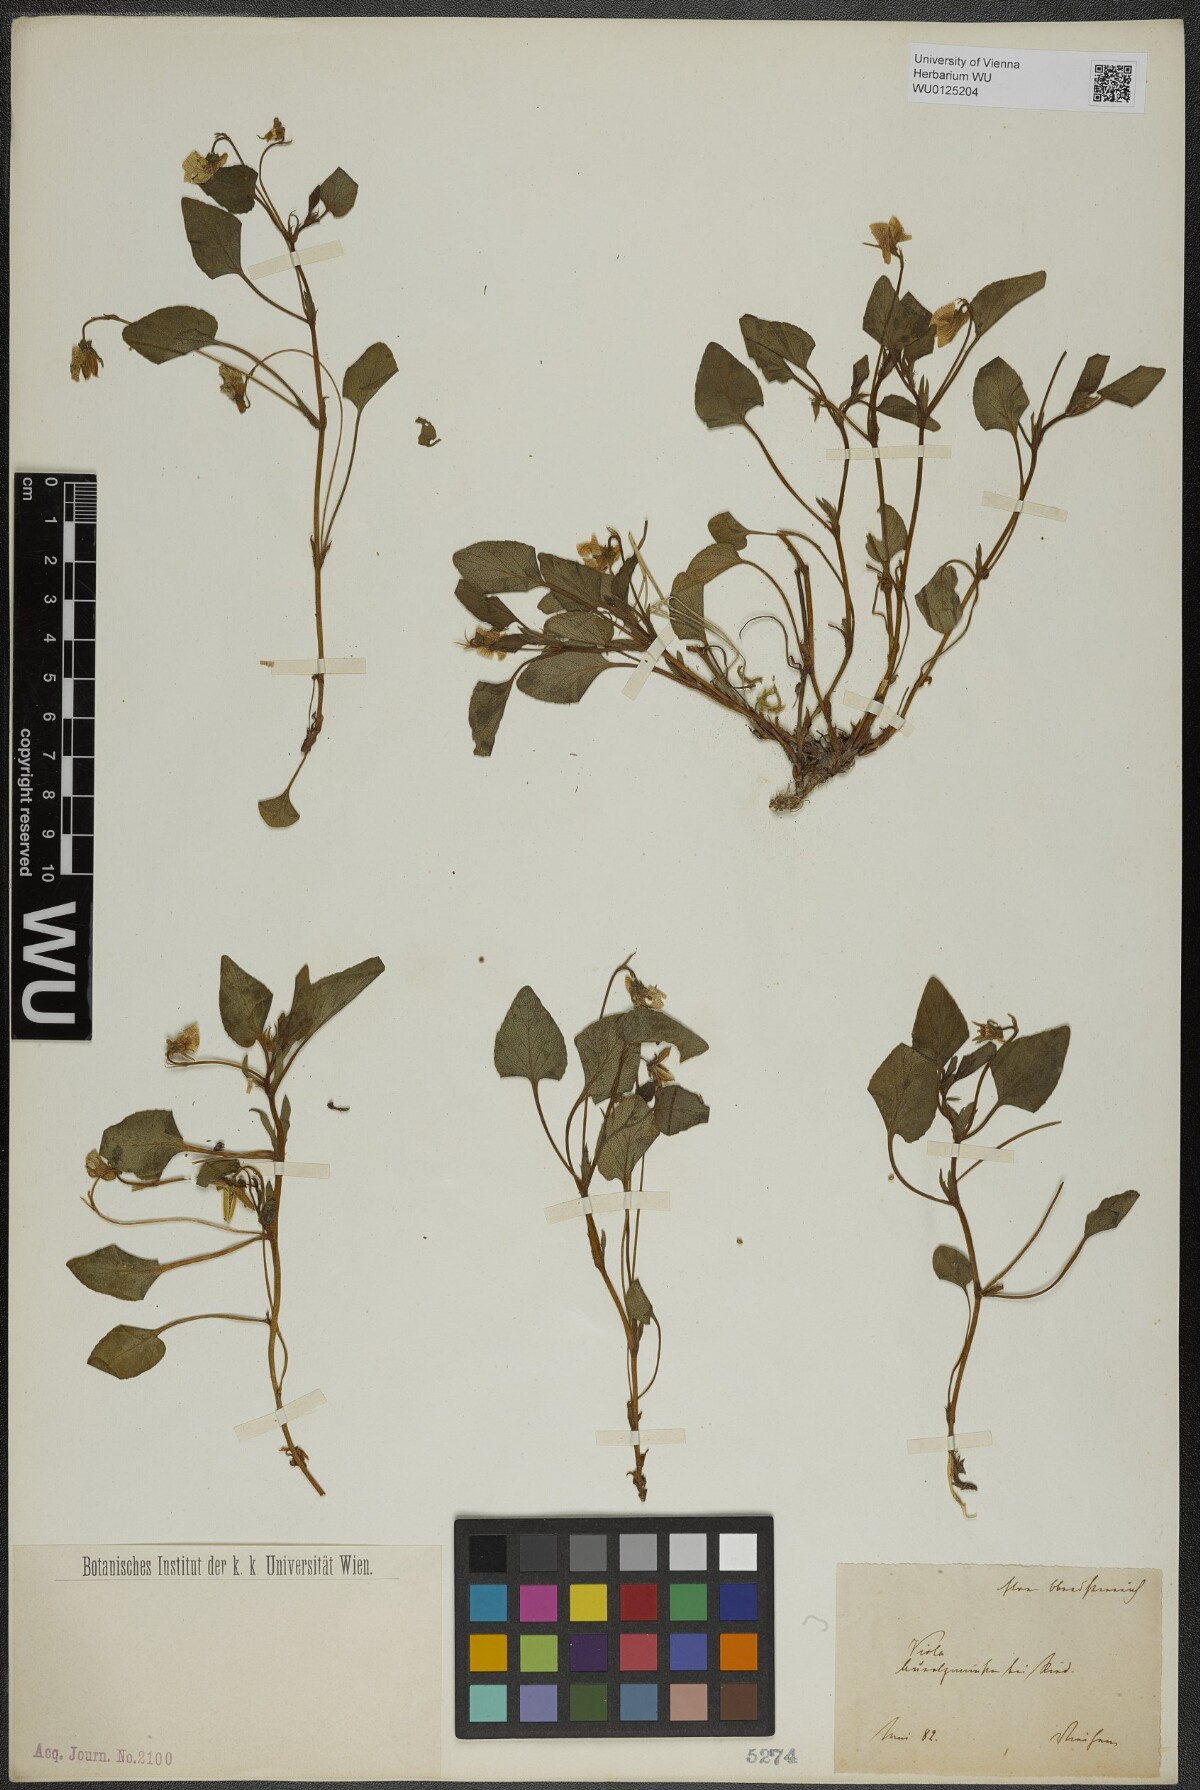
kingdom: Plantae
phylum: Tracheophyta
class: Magnoliopsida
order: Malpighiales
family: Violaceae
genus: Viola
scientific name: Viola canina
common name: Heath dog-violet
